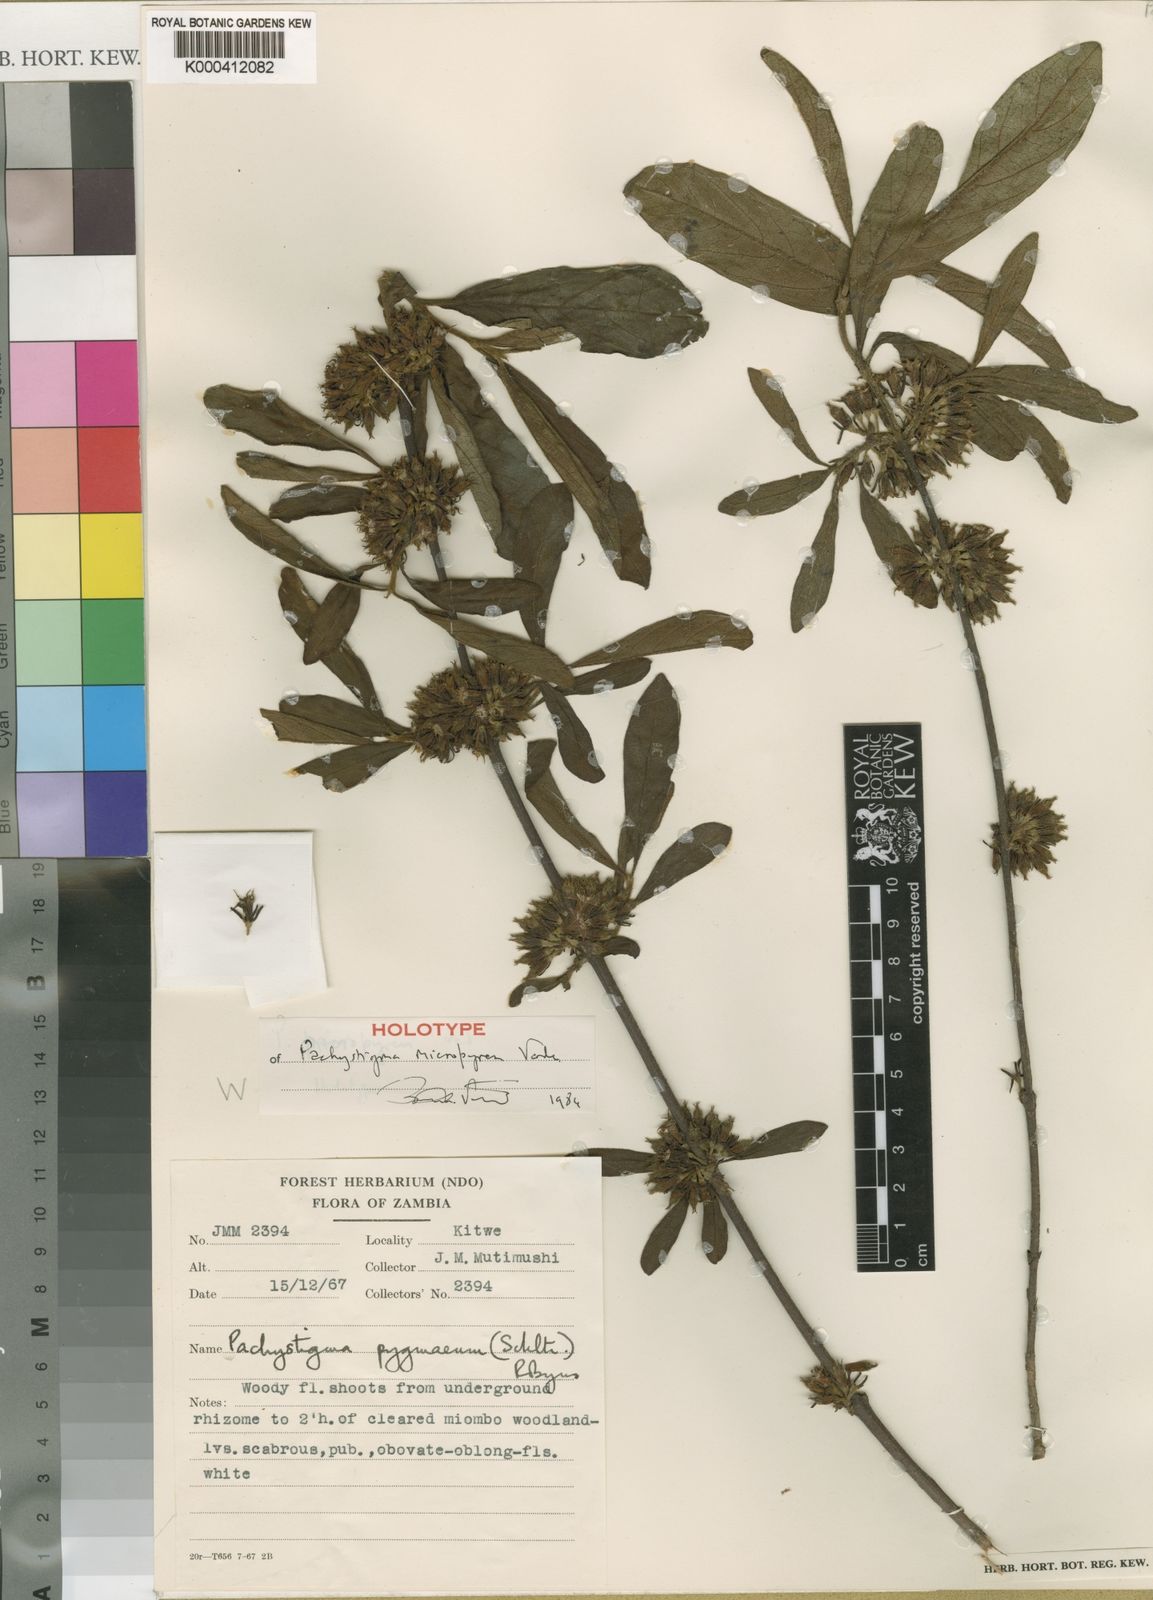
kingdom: Plantae
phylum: Tracheophyta
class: Magnoliopsida
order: Gentianales
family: Rubiaceae
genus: Vangueria
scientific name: Vangueria micropyren
